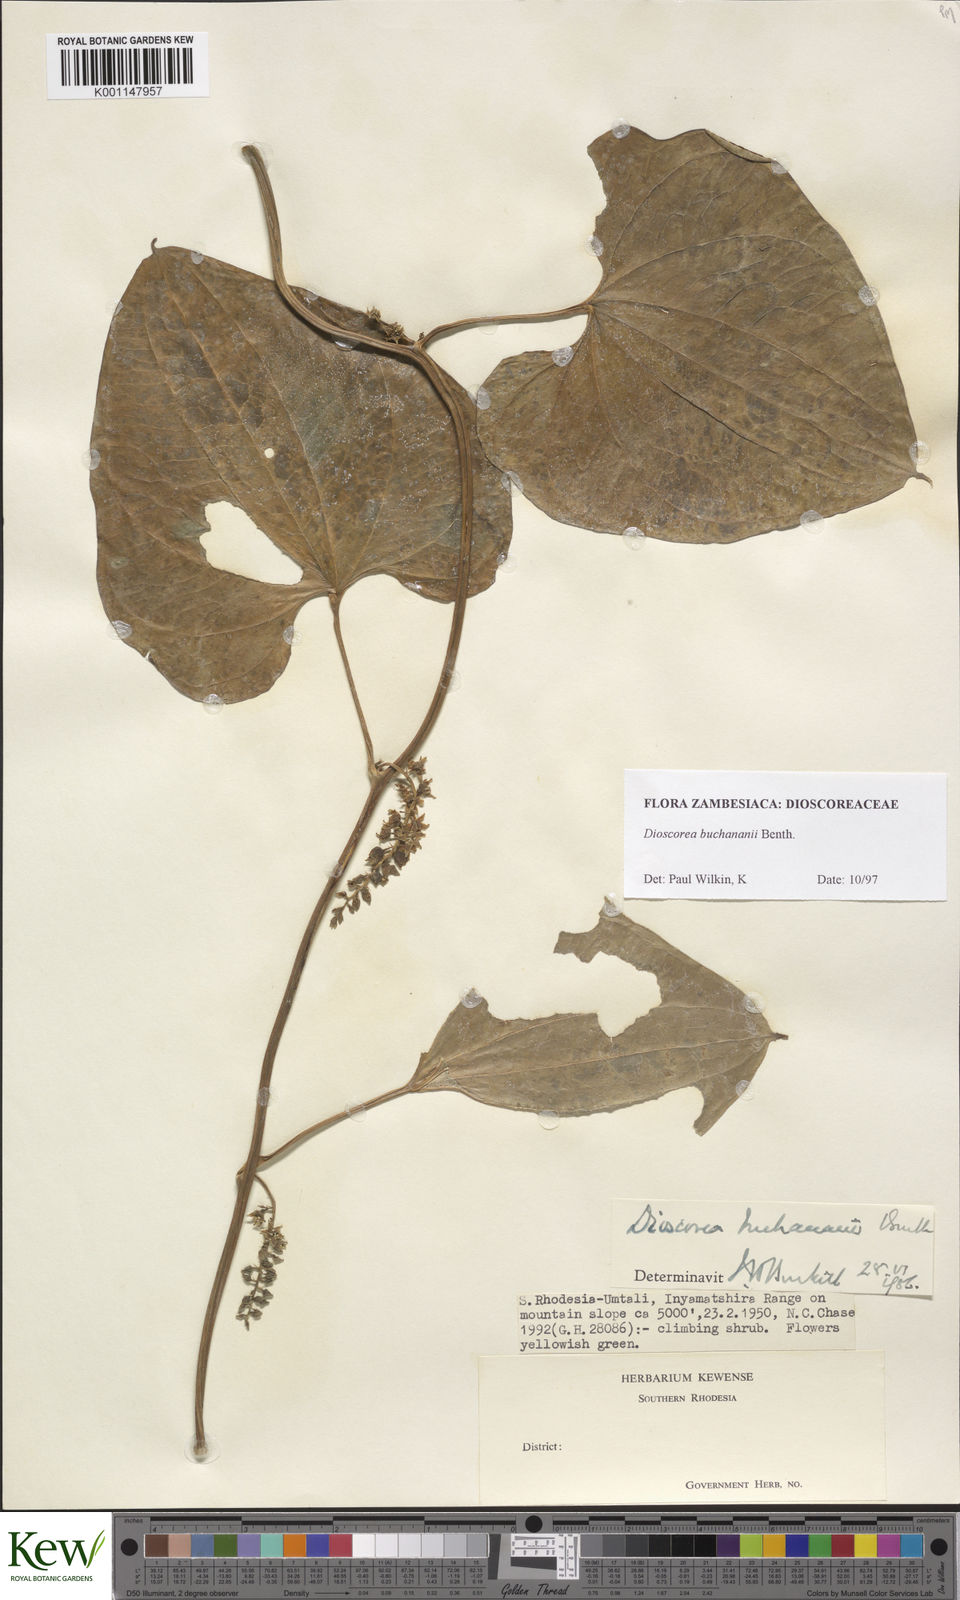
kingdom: Plantae
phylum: Tracheophyta
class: Liliopsida
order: Dioscoreales
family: Dioscoreaceae
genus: Dioscorea
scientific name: Dioscorea buchananii
